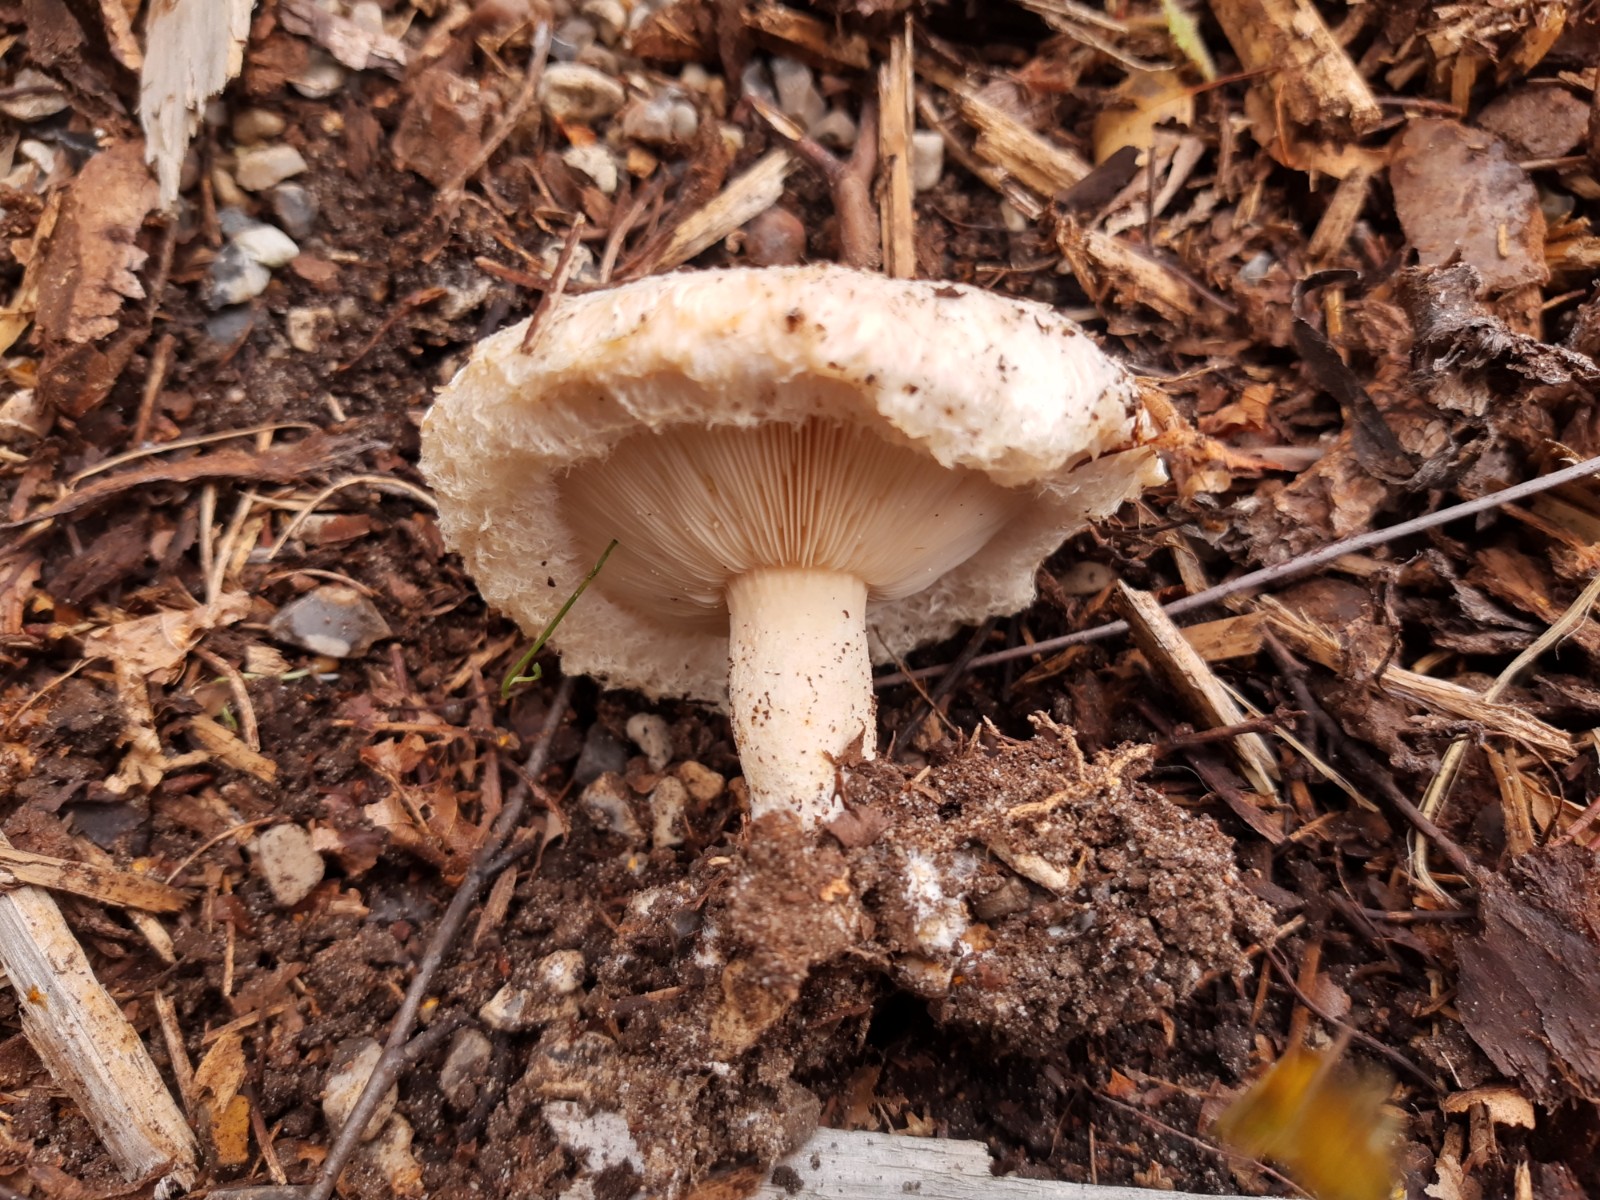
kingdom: Fungi
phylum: Basidiomycota
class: Agaricomycetes
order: Russulales
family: Russulaceae
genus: Lactarius
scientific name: Lactarius pubescens
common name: dunet mælkehat
